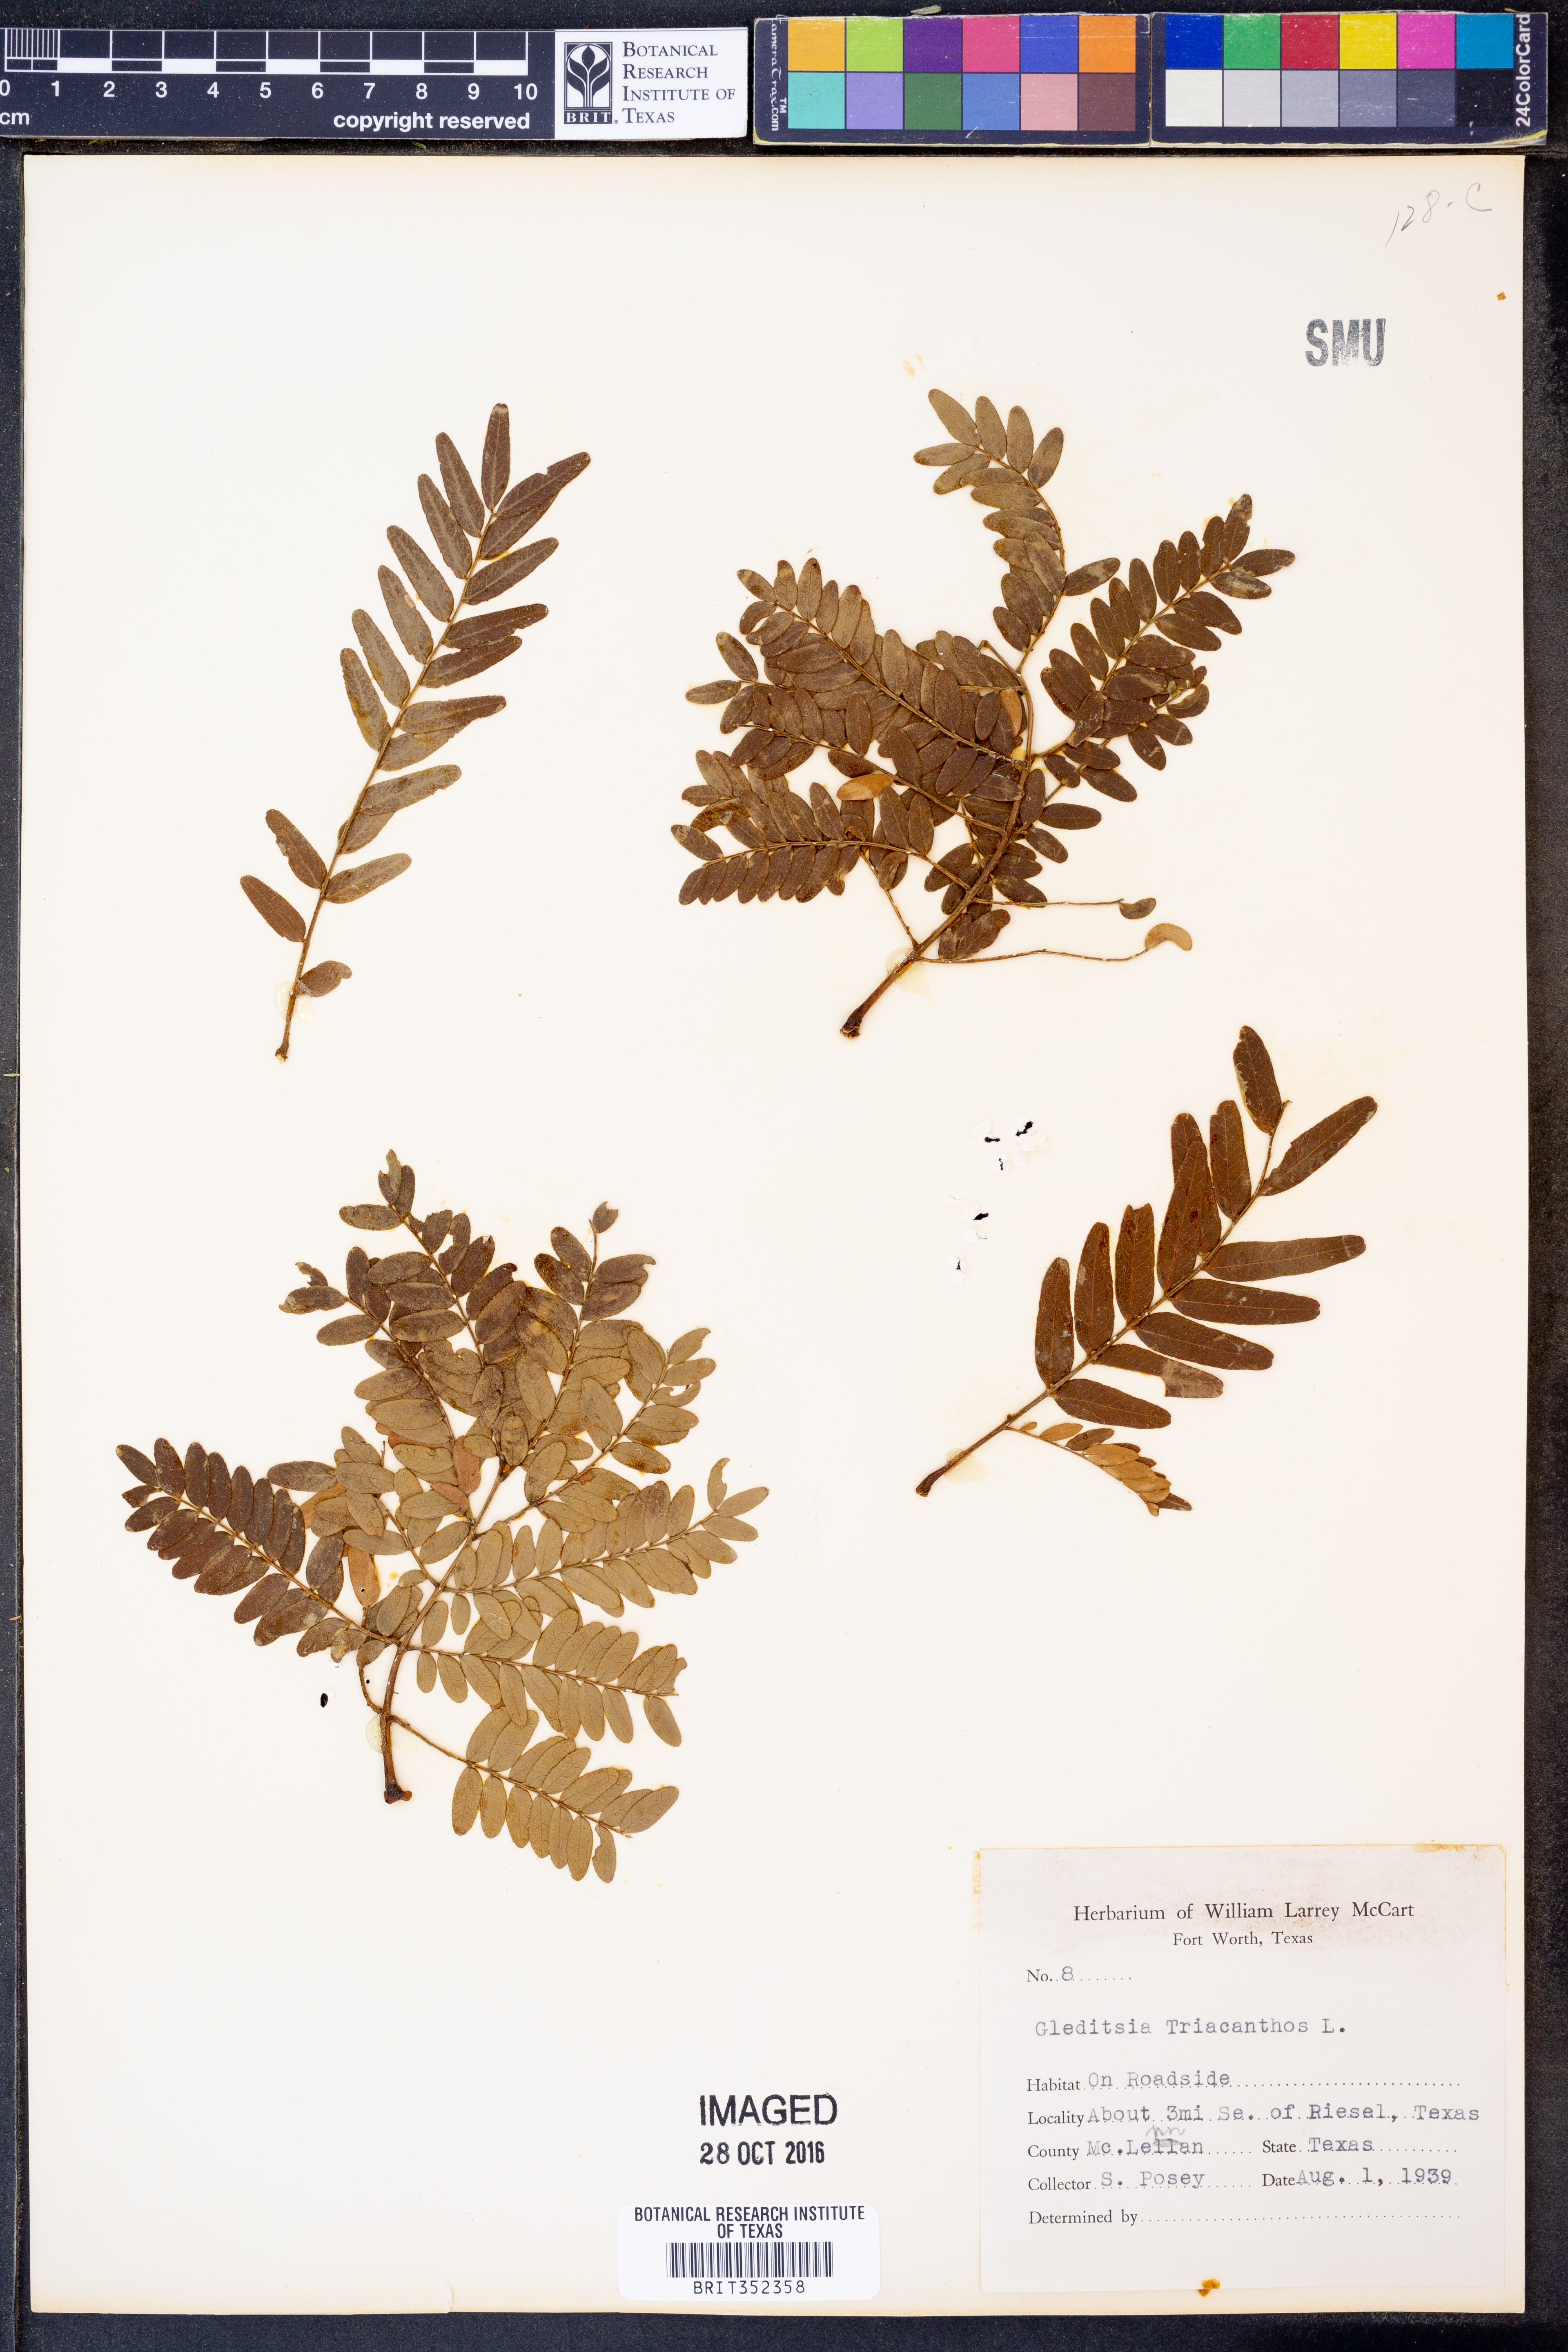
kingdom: Plantae
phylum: Tracheophyta
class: Magnoliopsida
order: Fabales
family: Fabaceae
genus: Gleditsia
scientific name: Gleditsia triacanthos
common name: Common honeylocust
